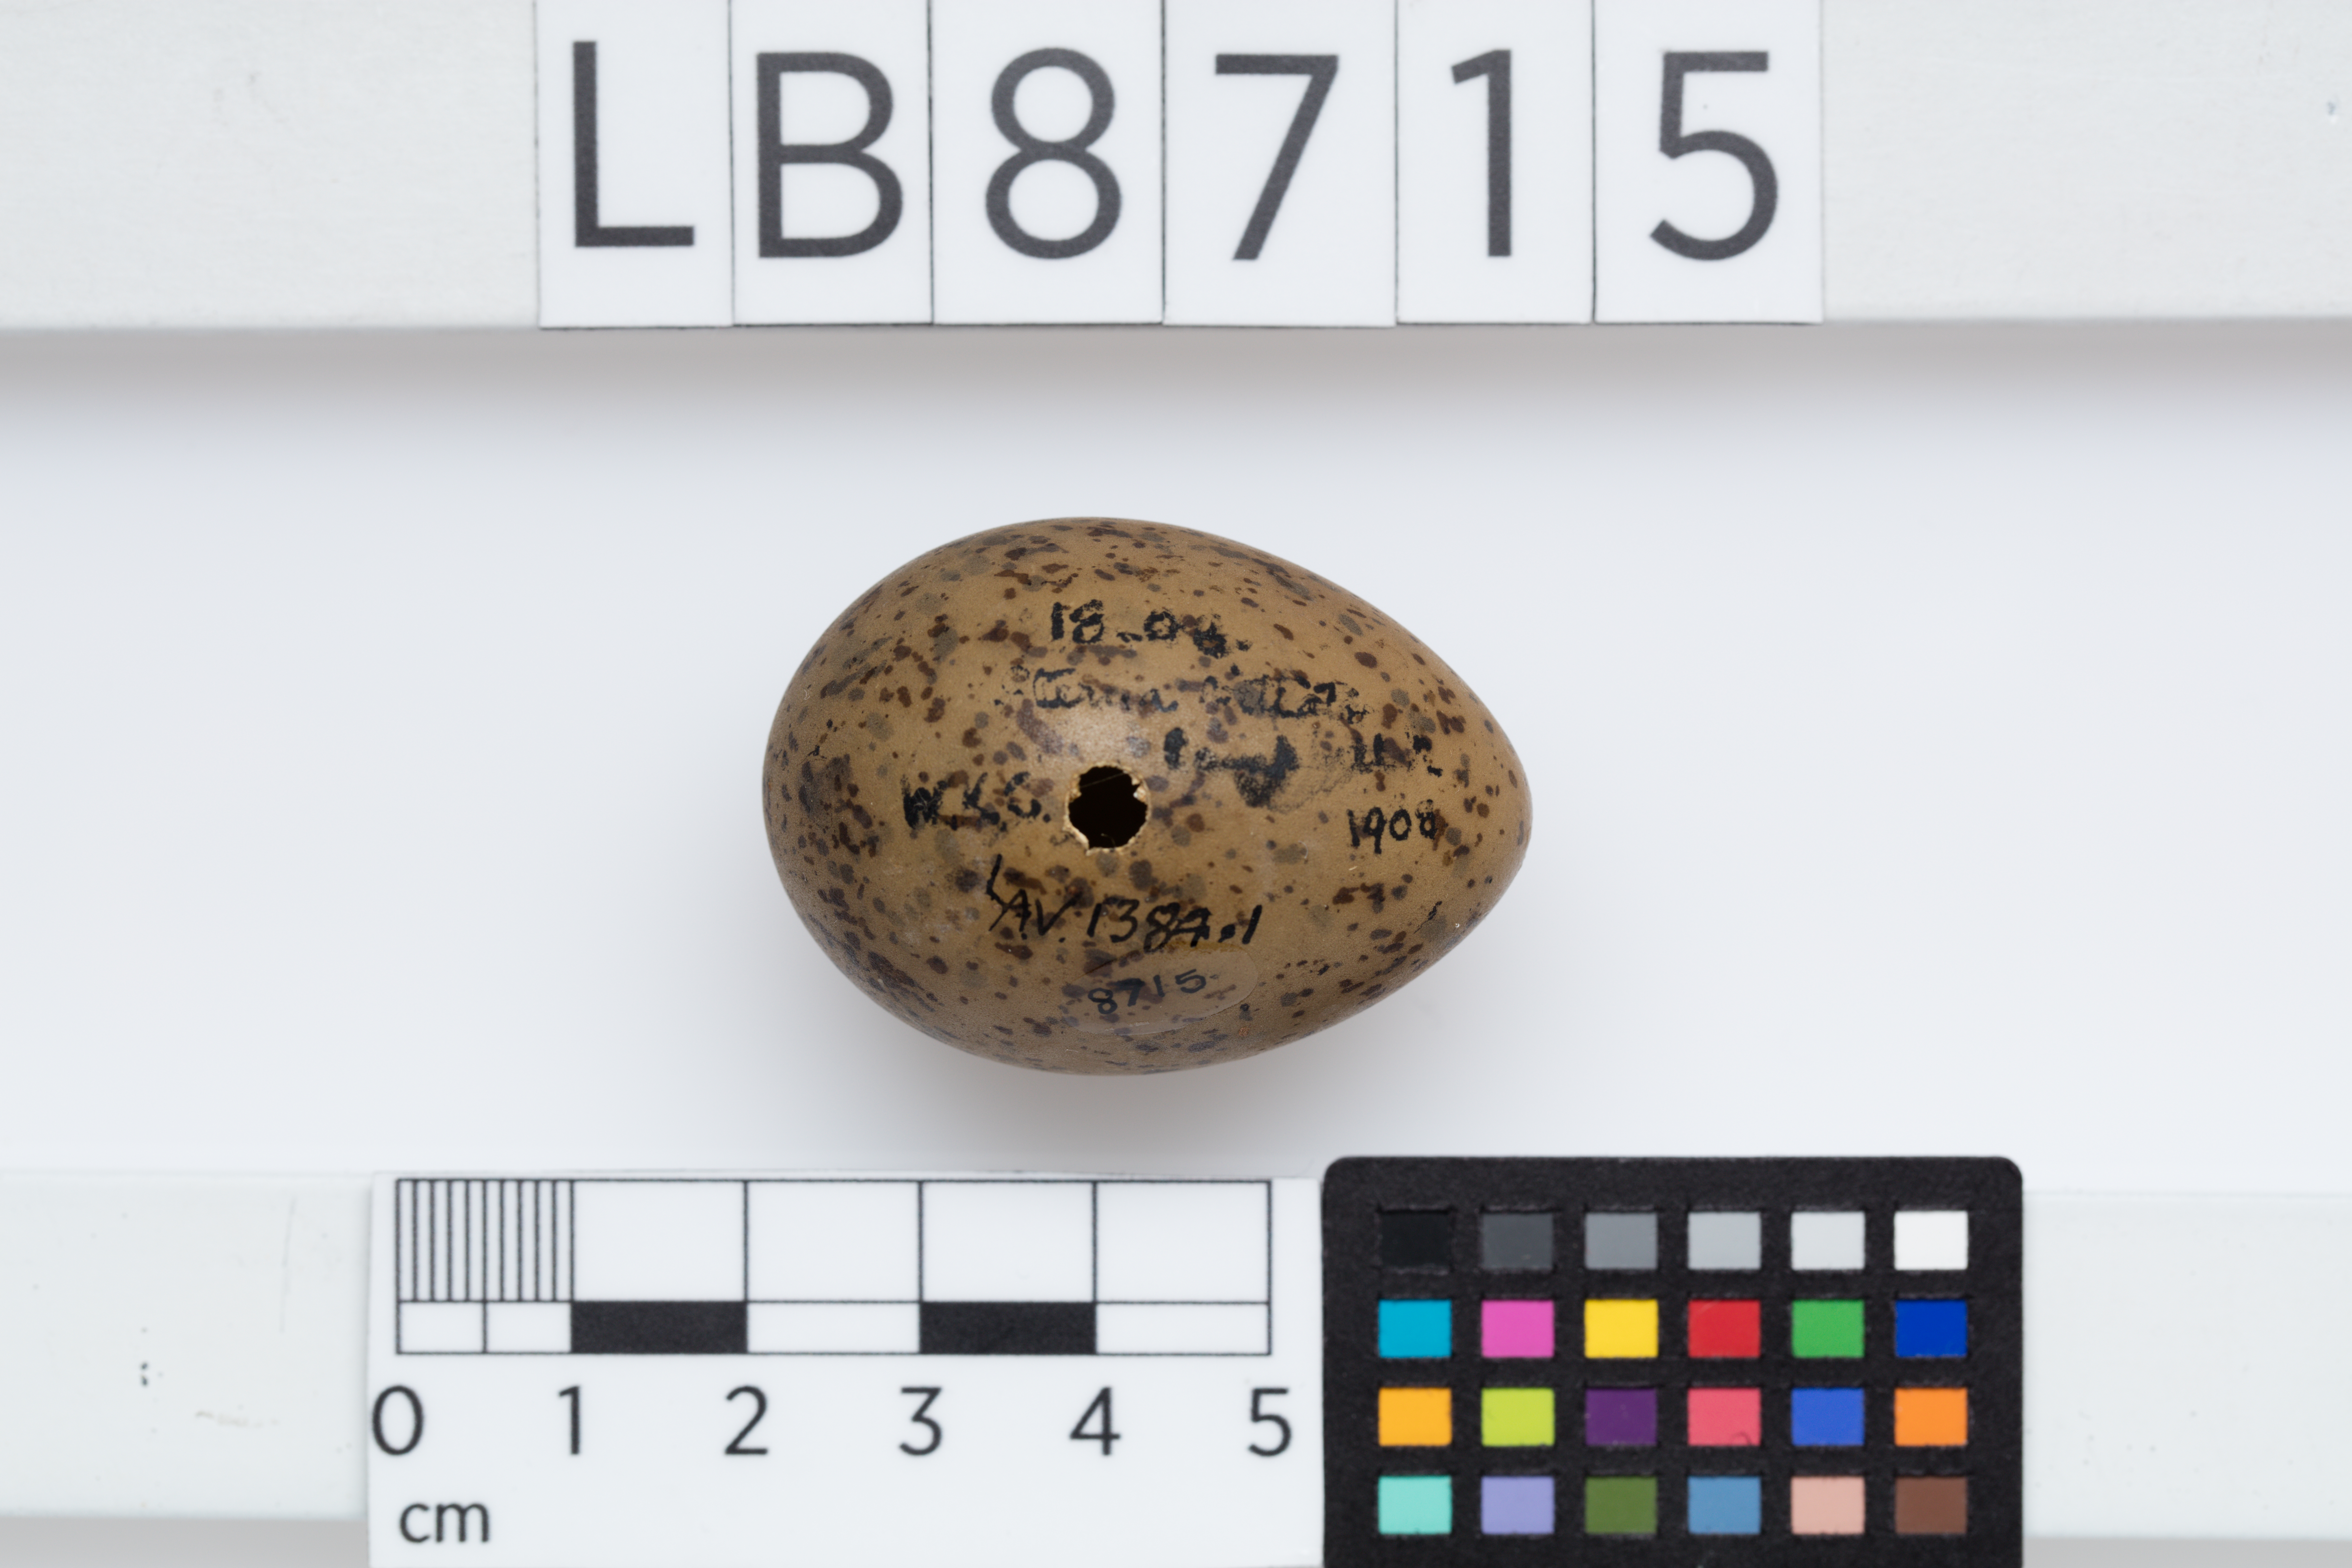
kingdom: Animalia
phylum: Chordata
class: Aves
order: Charadriiformes
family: Laridae
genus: Sterna
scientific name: Sterna vittata
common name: Antarctic tern
